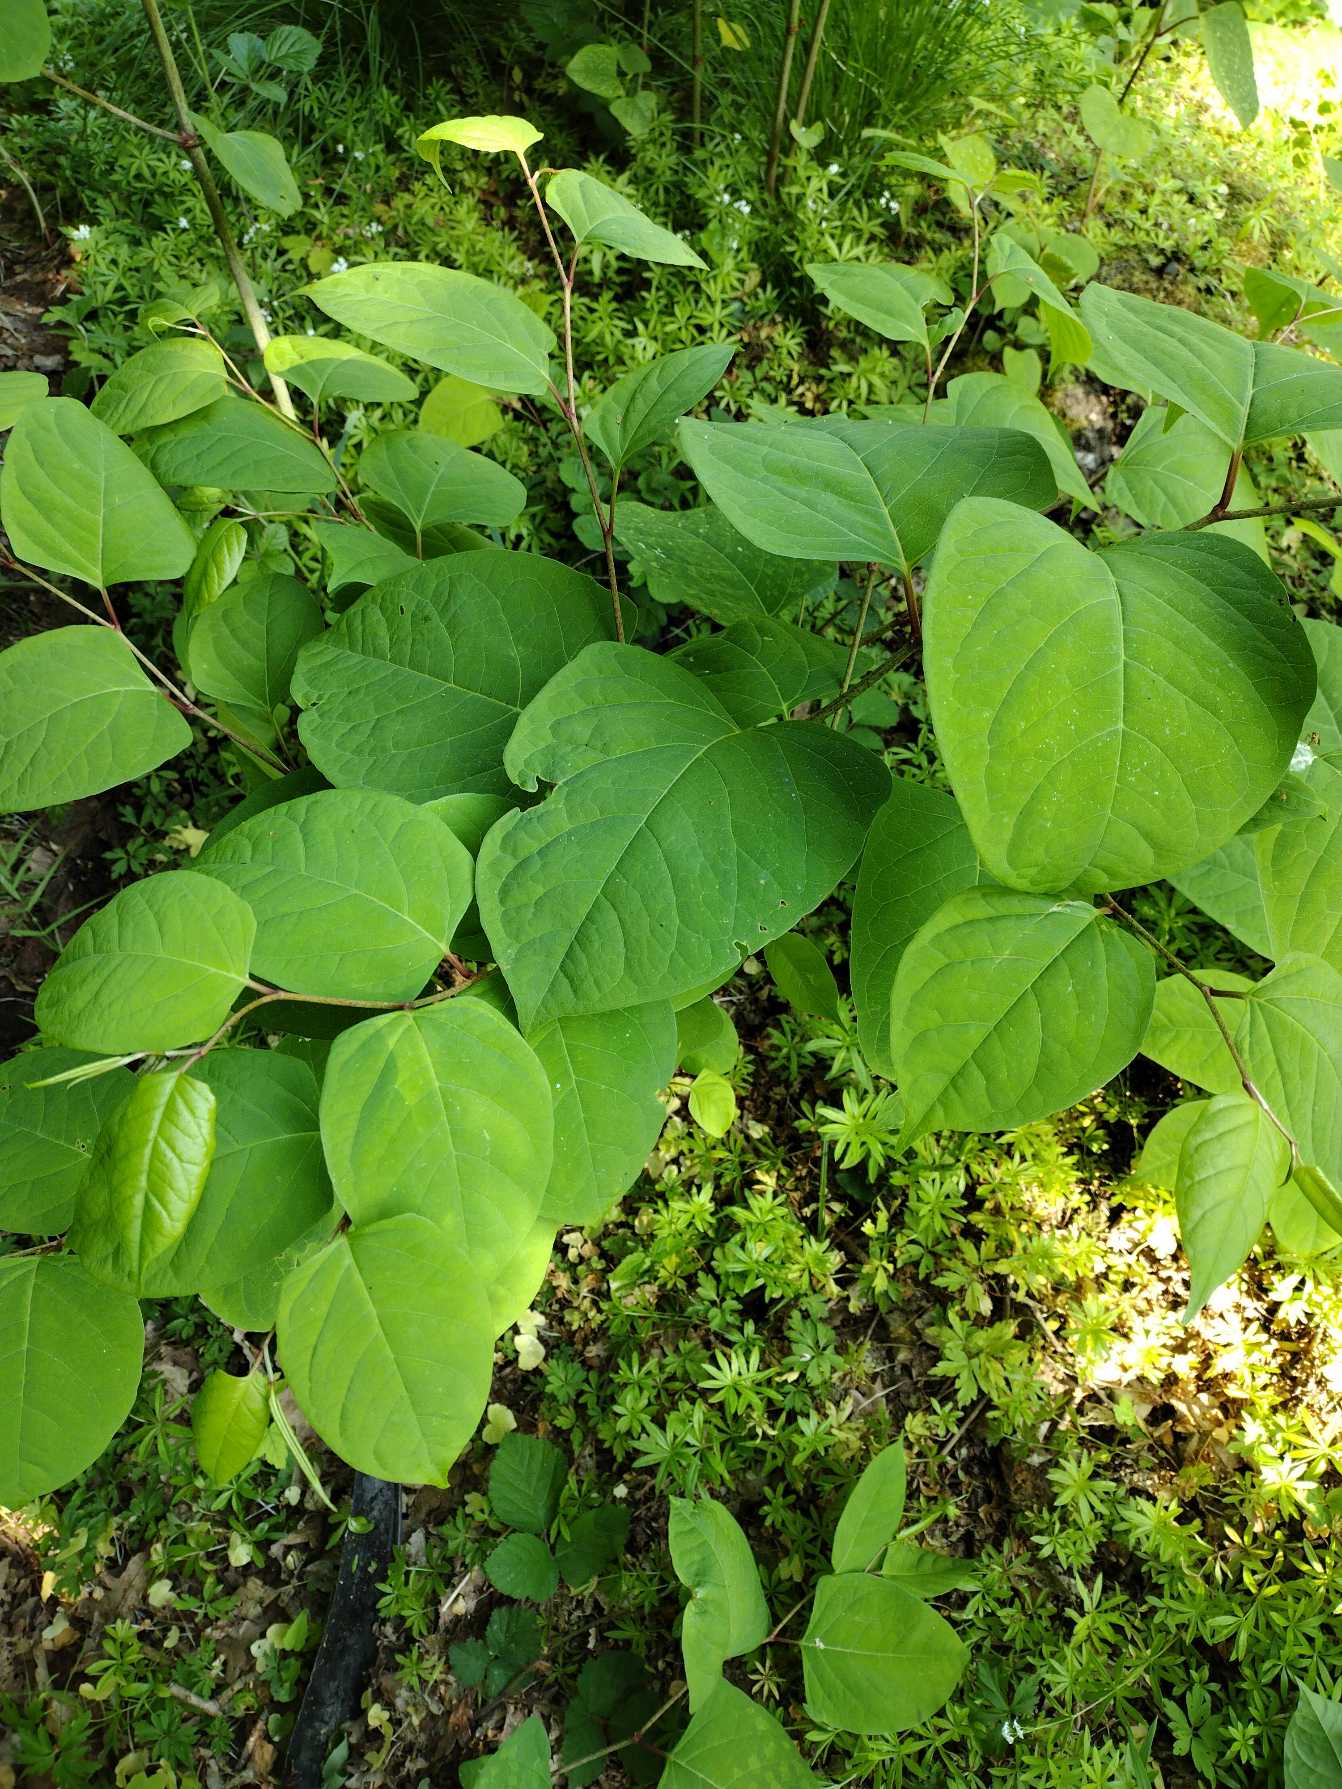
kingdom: Plantae
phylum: Tracheophyta
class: Magnoliopsida
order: Caryophyllales
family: Polygonaceae
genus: Reynoutria
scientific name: Reynoutria japonica
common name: Japan-pileurt
